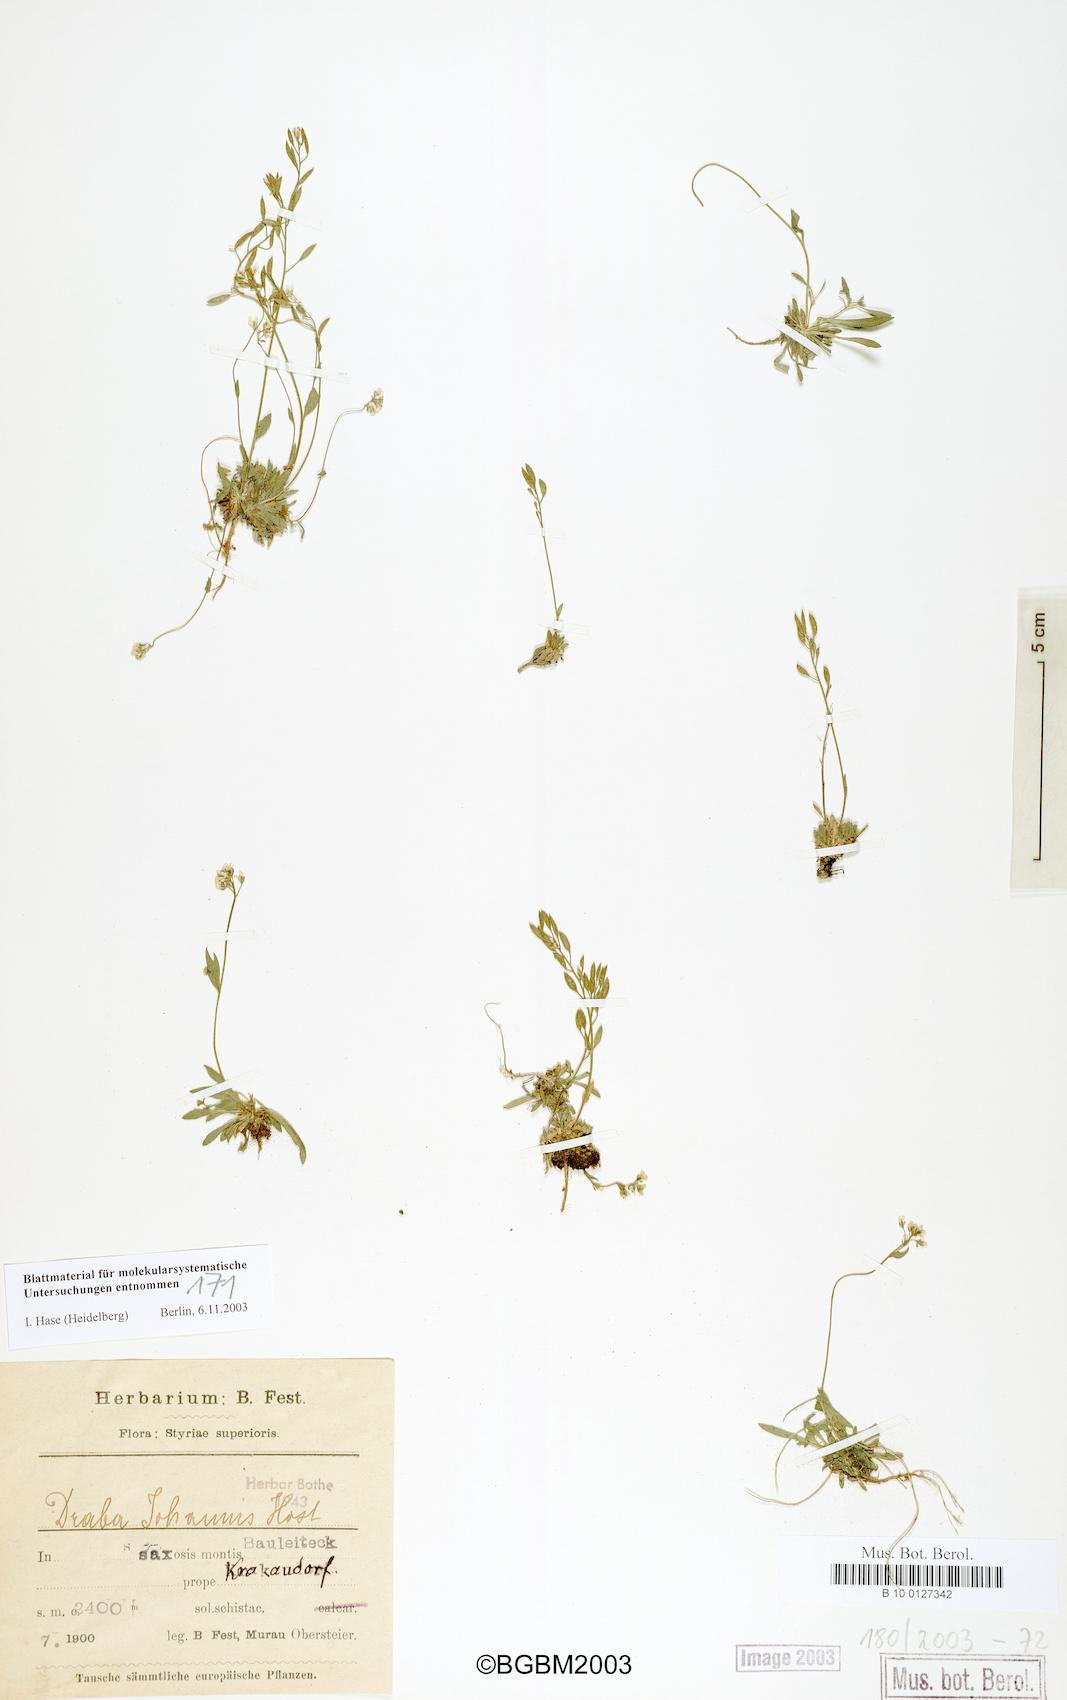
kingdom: Plantae
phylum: Tracheophyta
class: Magnoliopsida
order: Brassicales
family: Brassicaceae
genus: Draba
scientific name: Draba siliquosa
